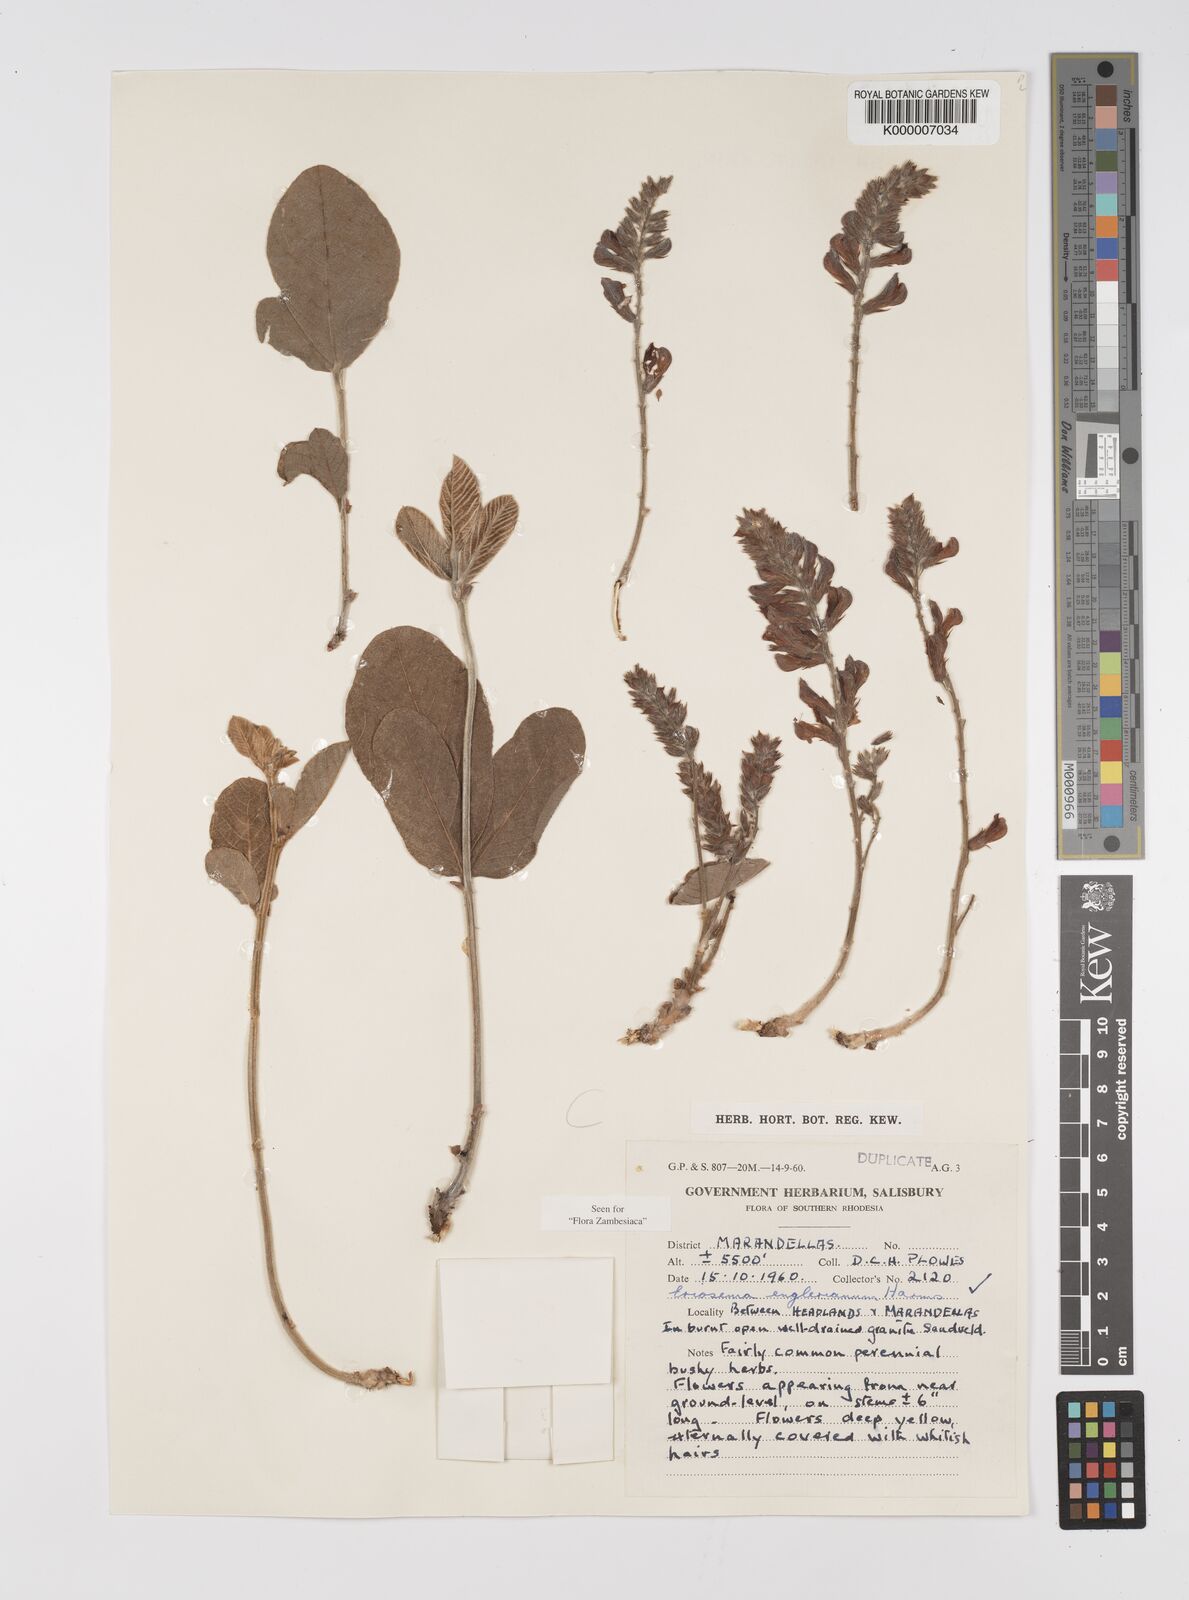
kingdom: Plantae
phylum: Tracheophyta
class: Magnoliopsida
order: Fabales
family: Fabaceae
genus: Eriosema
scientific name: Eriosema englerianum
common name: Blue bush
